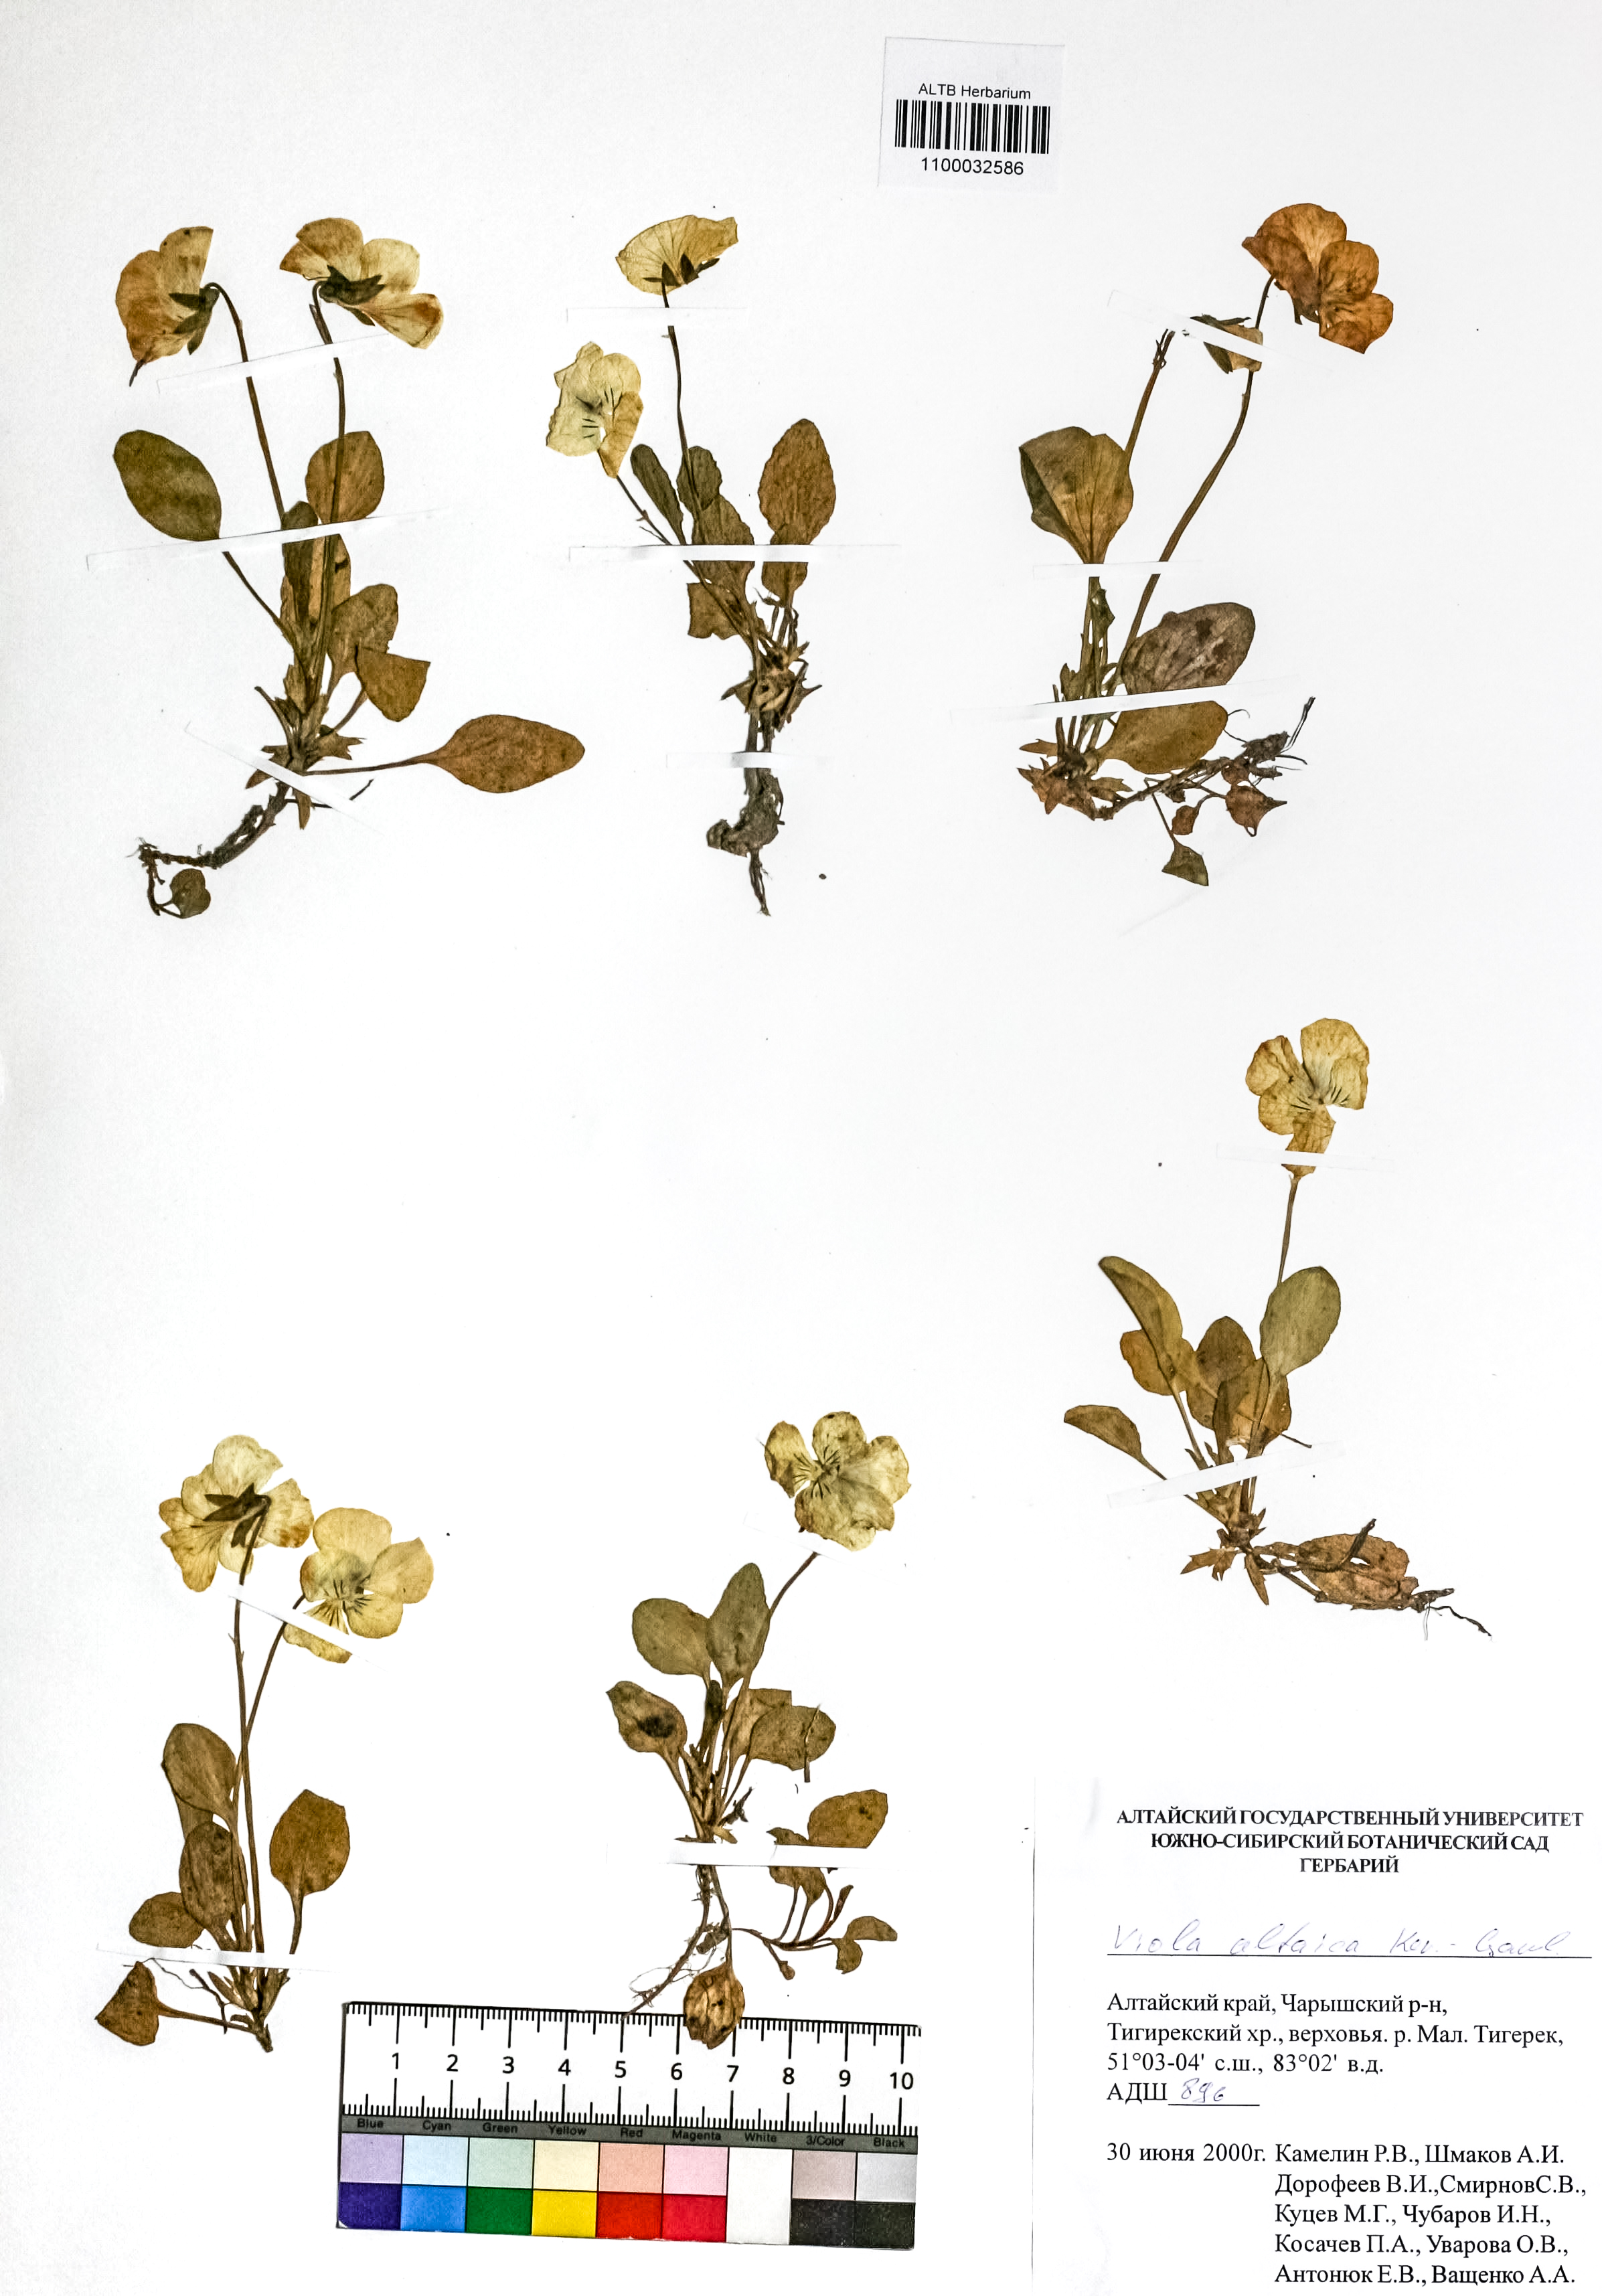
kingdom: Plantae
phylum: Tracheophyta
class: Magnoliopsida
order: Malpighiales
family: Violaceae
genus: Viola
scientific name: Viola altaica
